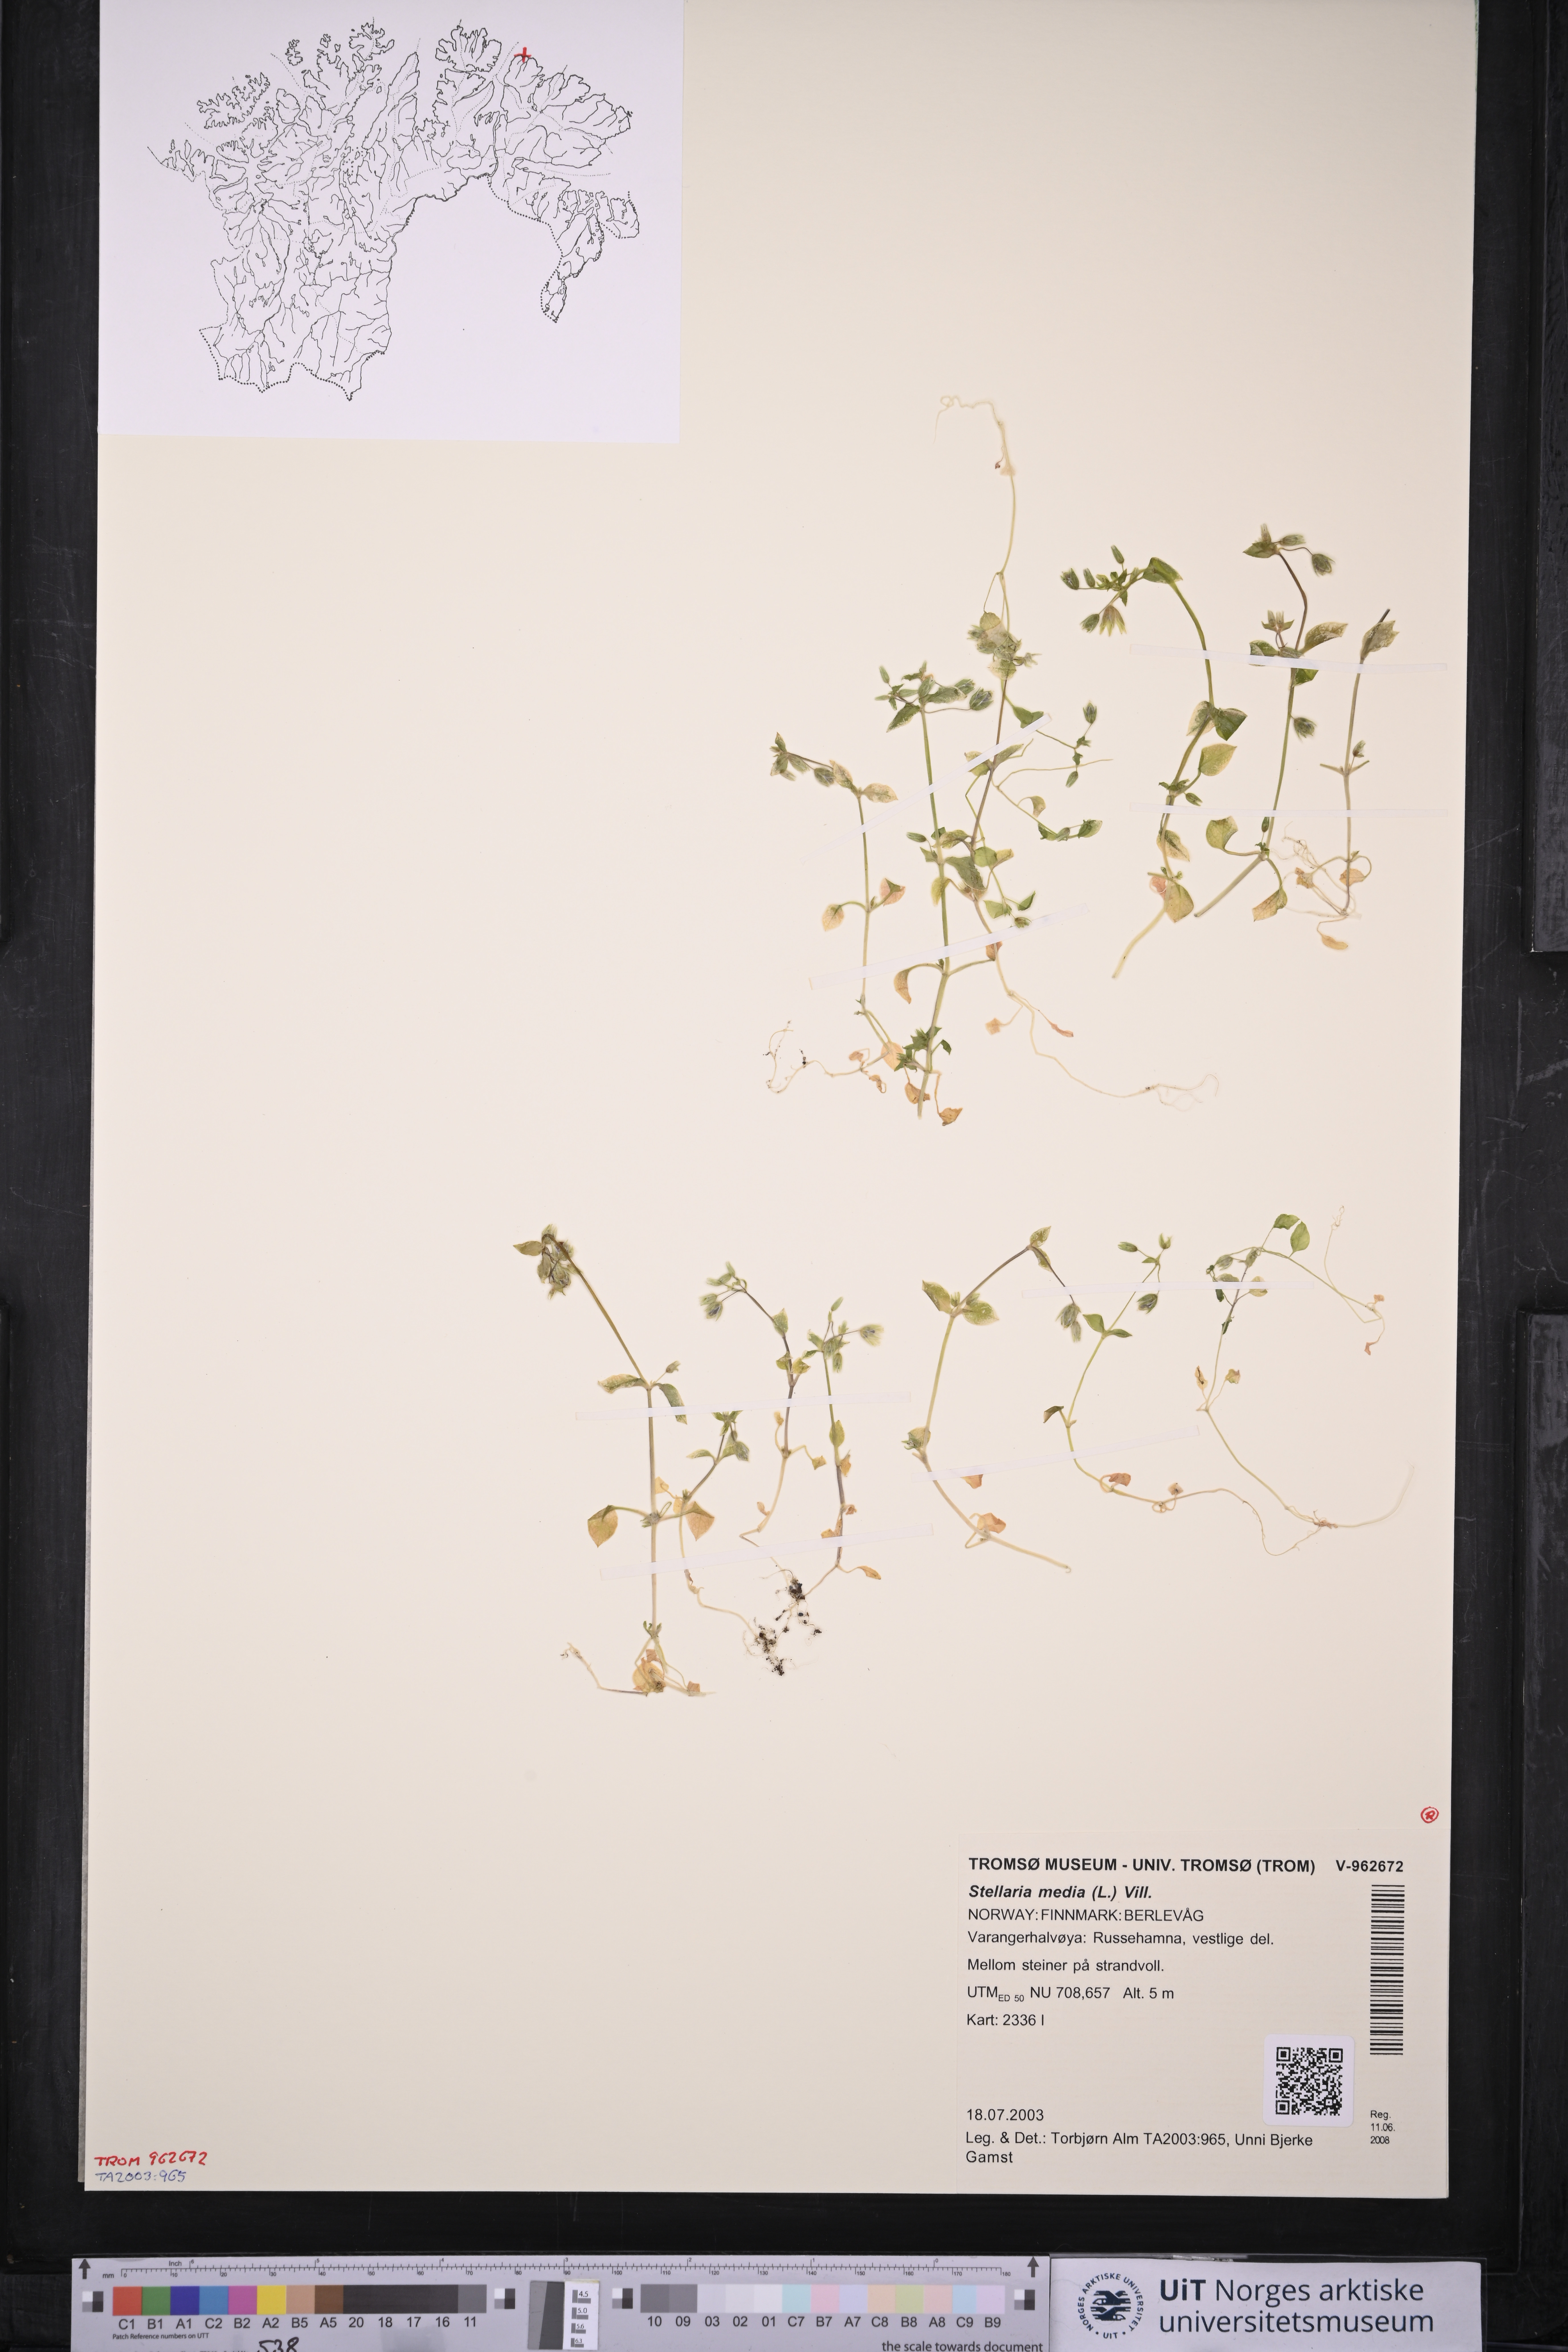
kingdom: Plantae
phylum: Tracheophyta
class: Magnoliopsida
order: Caryophyllales
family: Caryophyllaceae
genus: Stellaria
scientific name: Stellaria media
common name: Common chickweed
